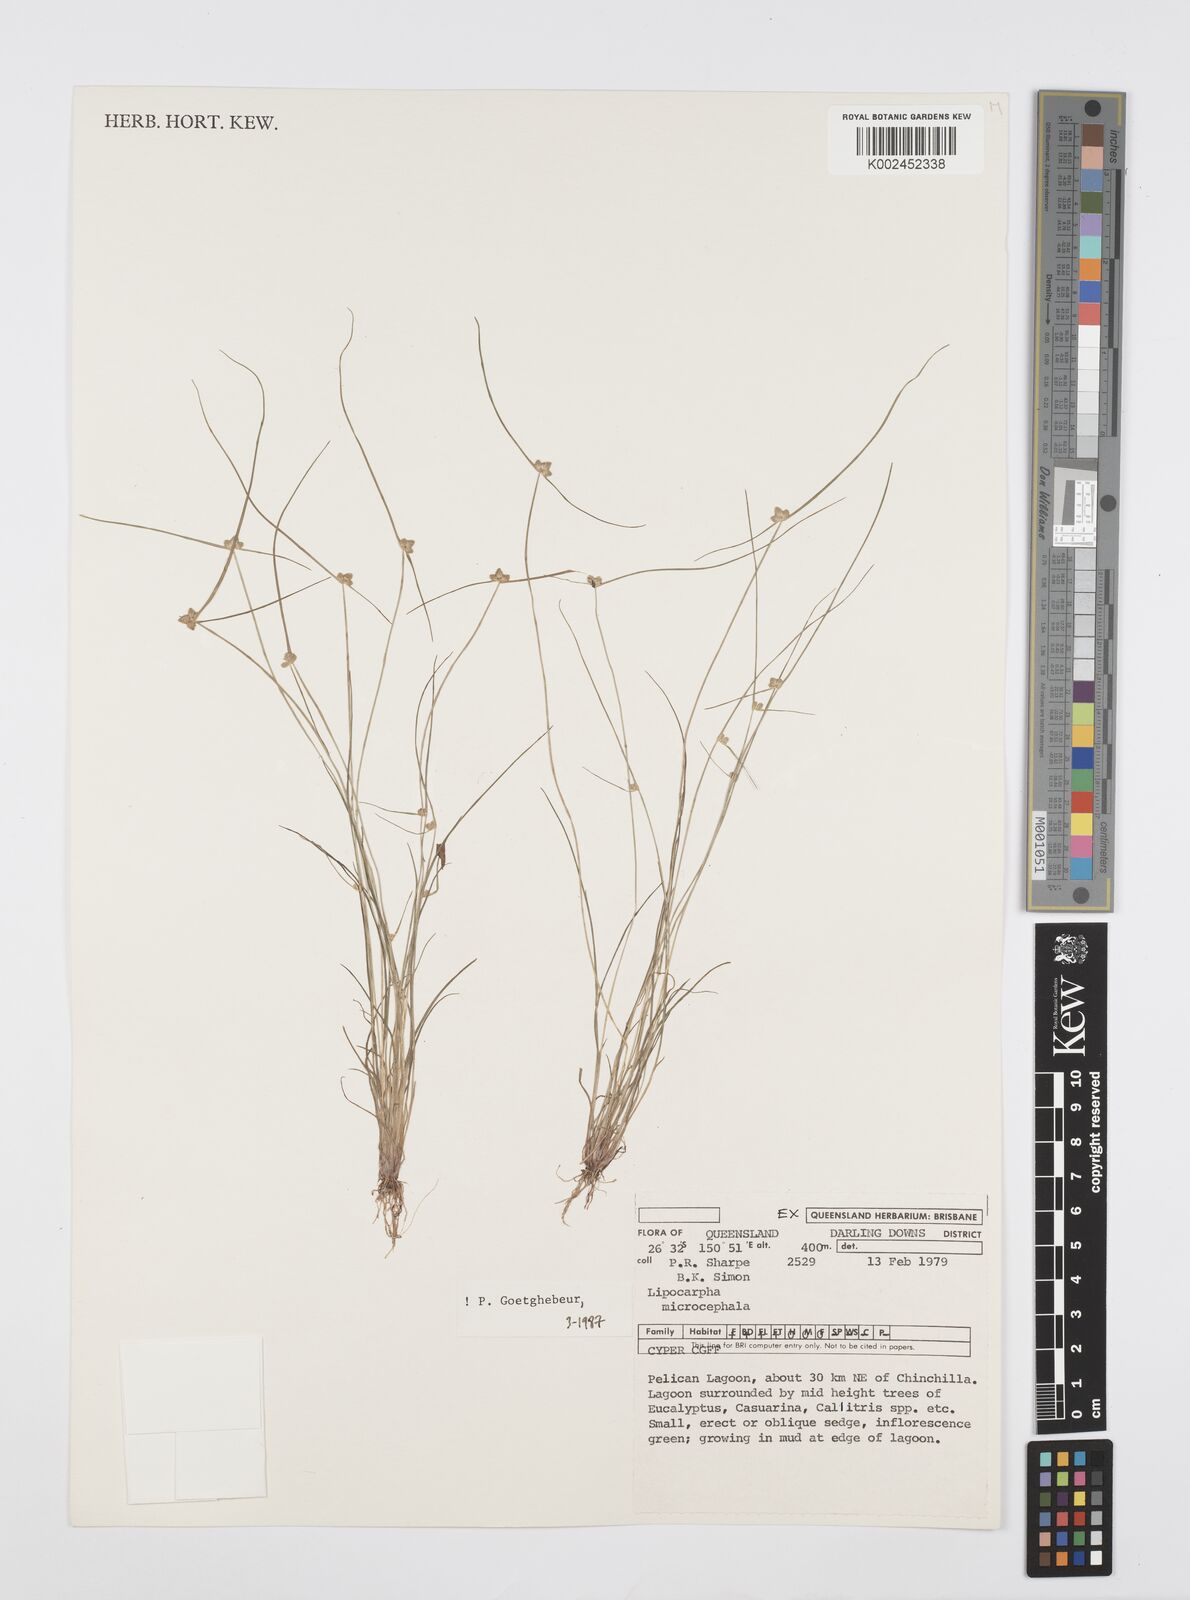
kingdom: Plantae
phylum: Tracheophyta
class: Liliopsida
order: Poales
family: Cyperaceae
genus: Cyperus
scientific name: Cyperus microcephalus
